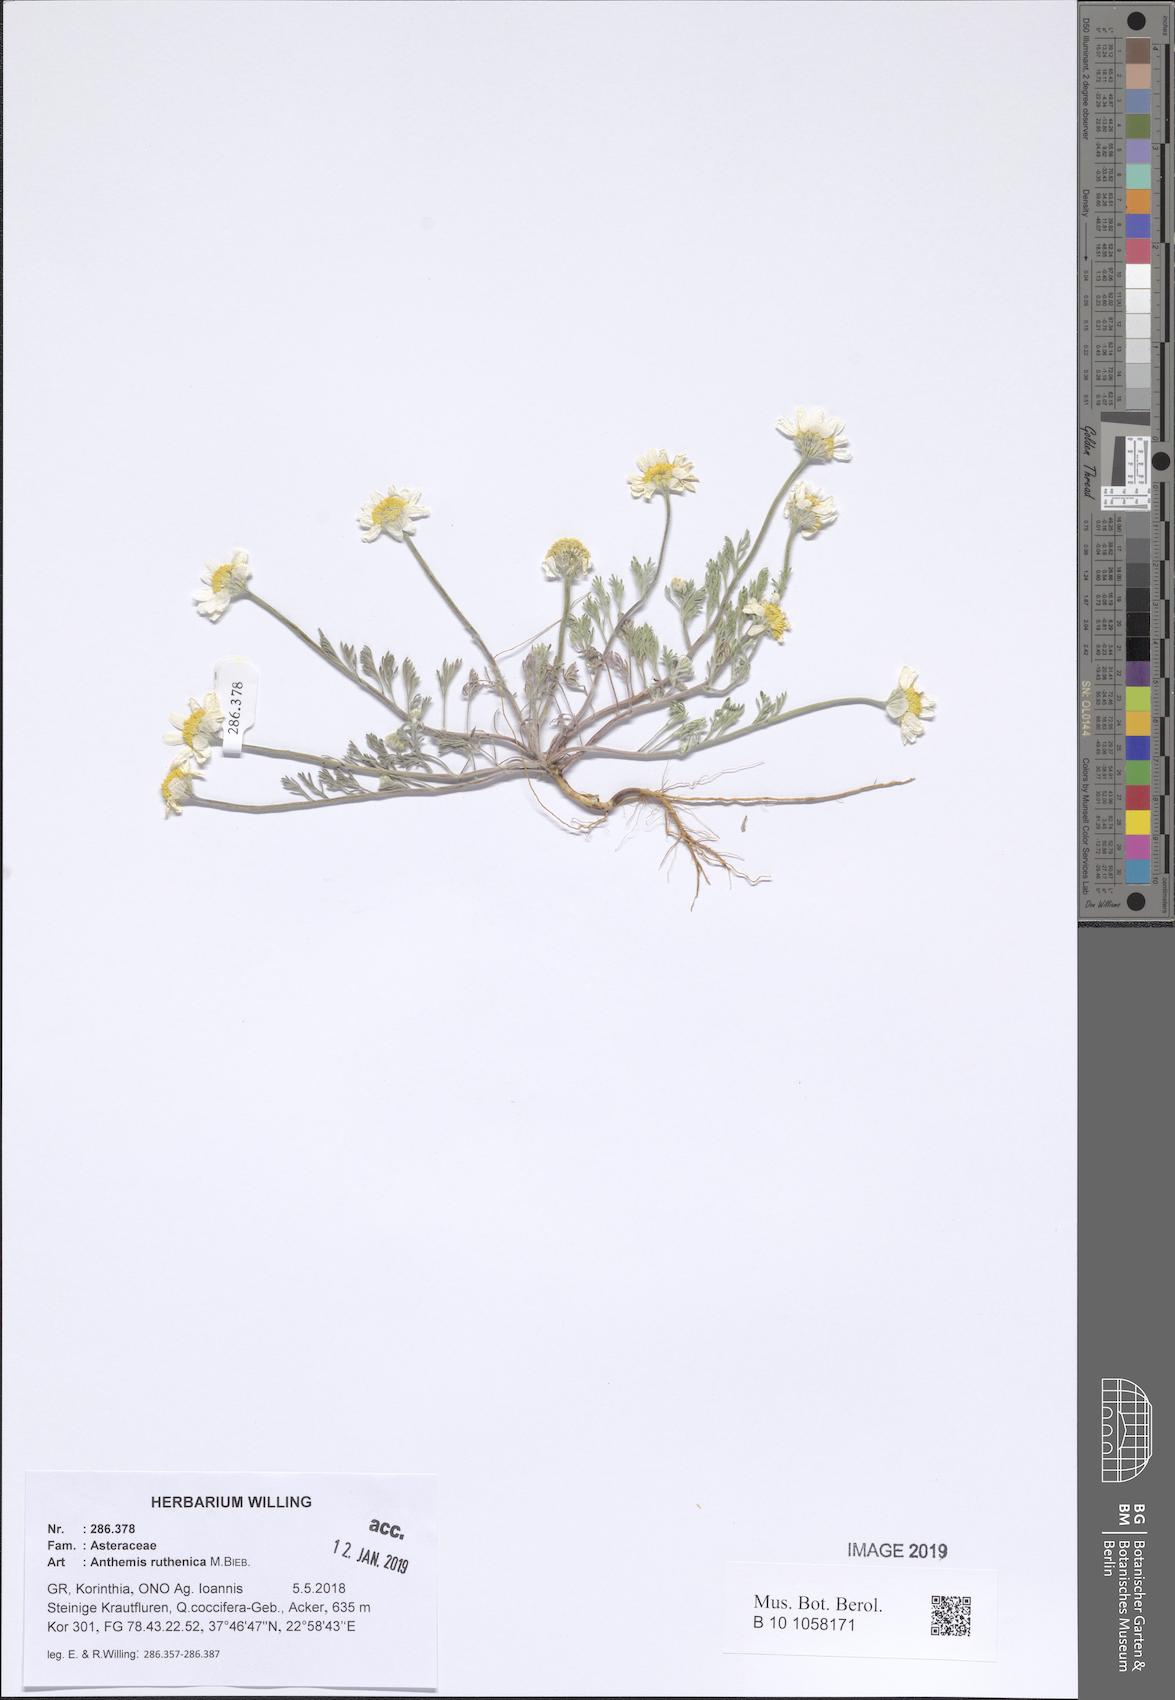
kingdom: Plantae
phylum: Tracheophyta
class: Magnoliopsida
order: Asterales
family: Asteraceae
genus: Anthemis
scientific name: Anthemis ruthenica
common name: Eastern chamomile
